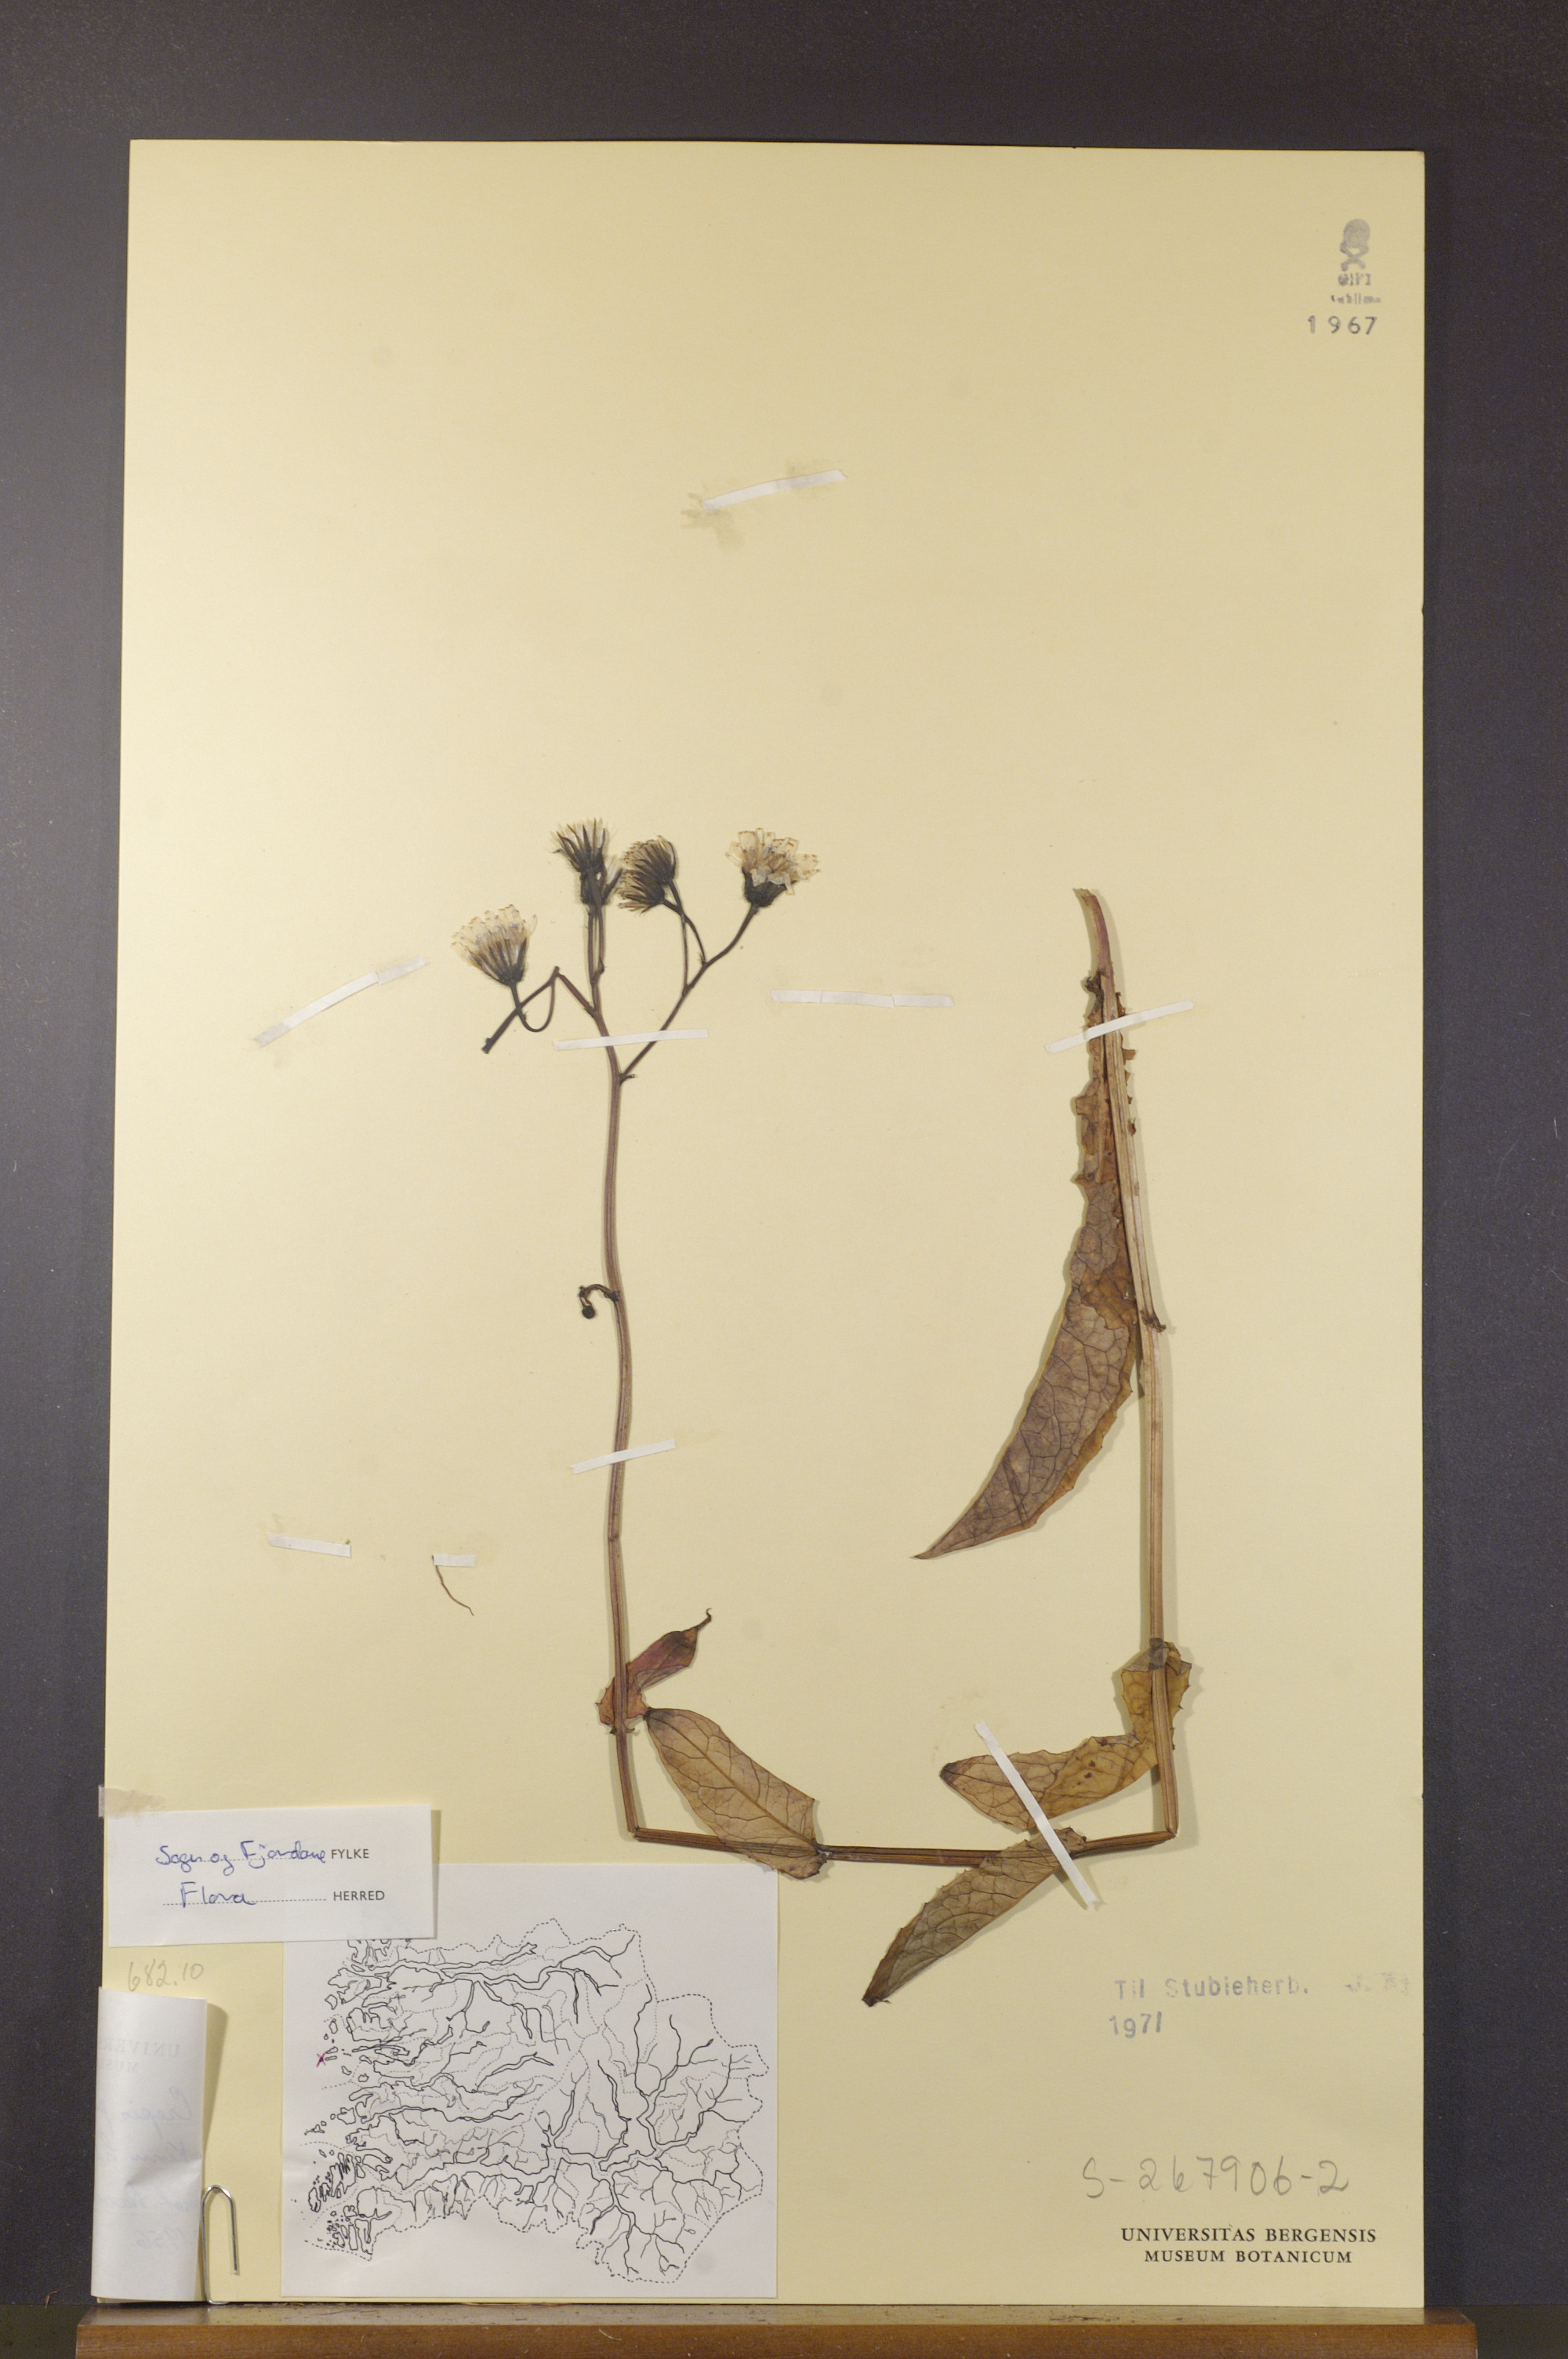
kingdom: Plantae
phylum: Tracheophyta
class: Magnoliopsida
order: Asterales
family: Asteraceae
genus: Crepis
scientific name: Crepis paludosa
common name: Marsh hawk's-beard
